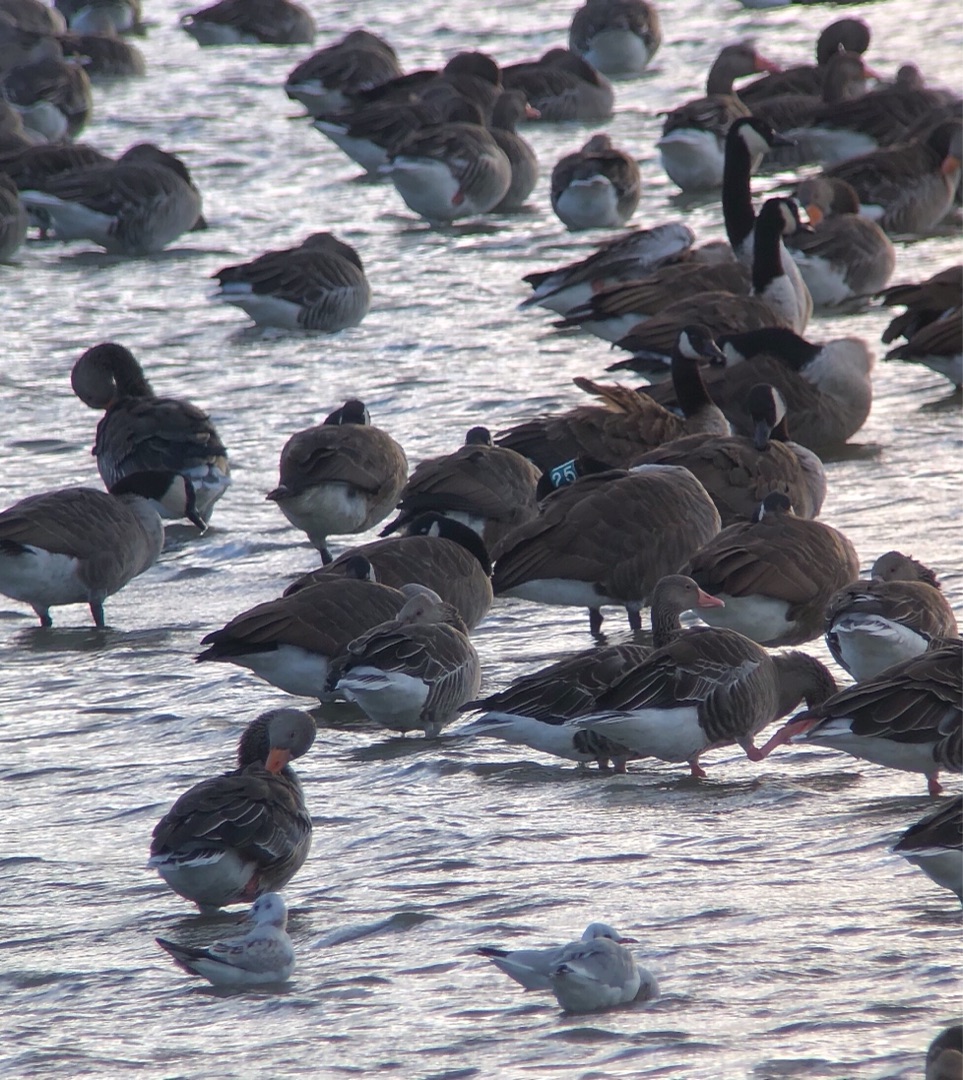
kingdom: Animalia
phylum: Chordata
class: Aves
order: Anseriformes
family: Anatidae
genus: Branta
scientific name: Branta canadensis
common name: Canadagås
